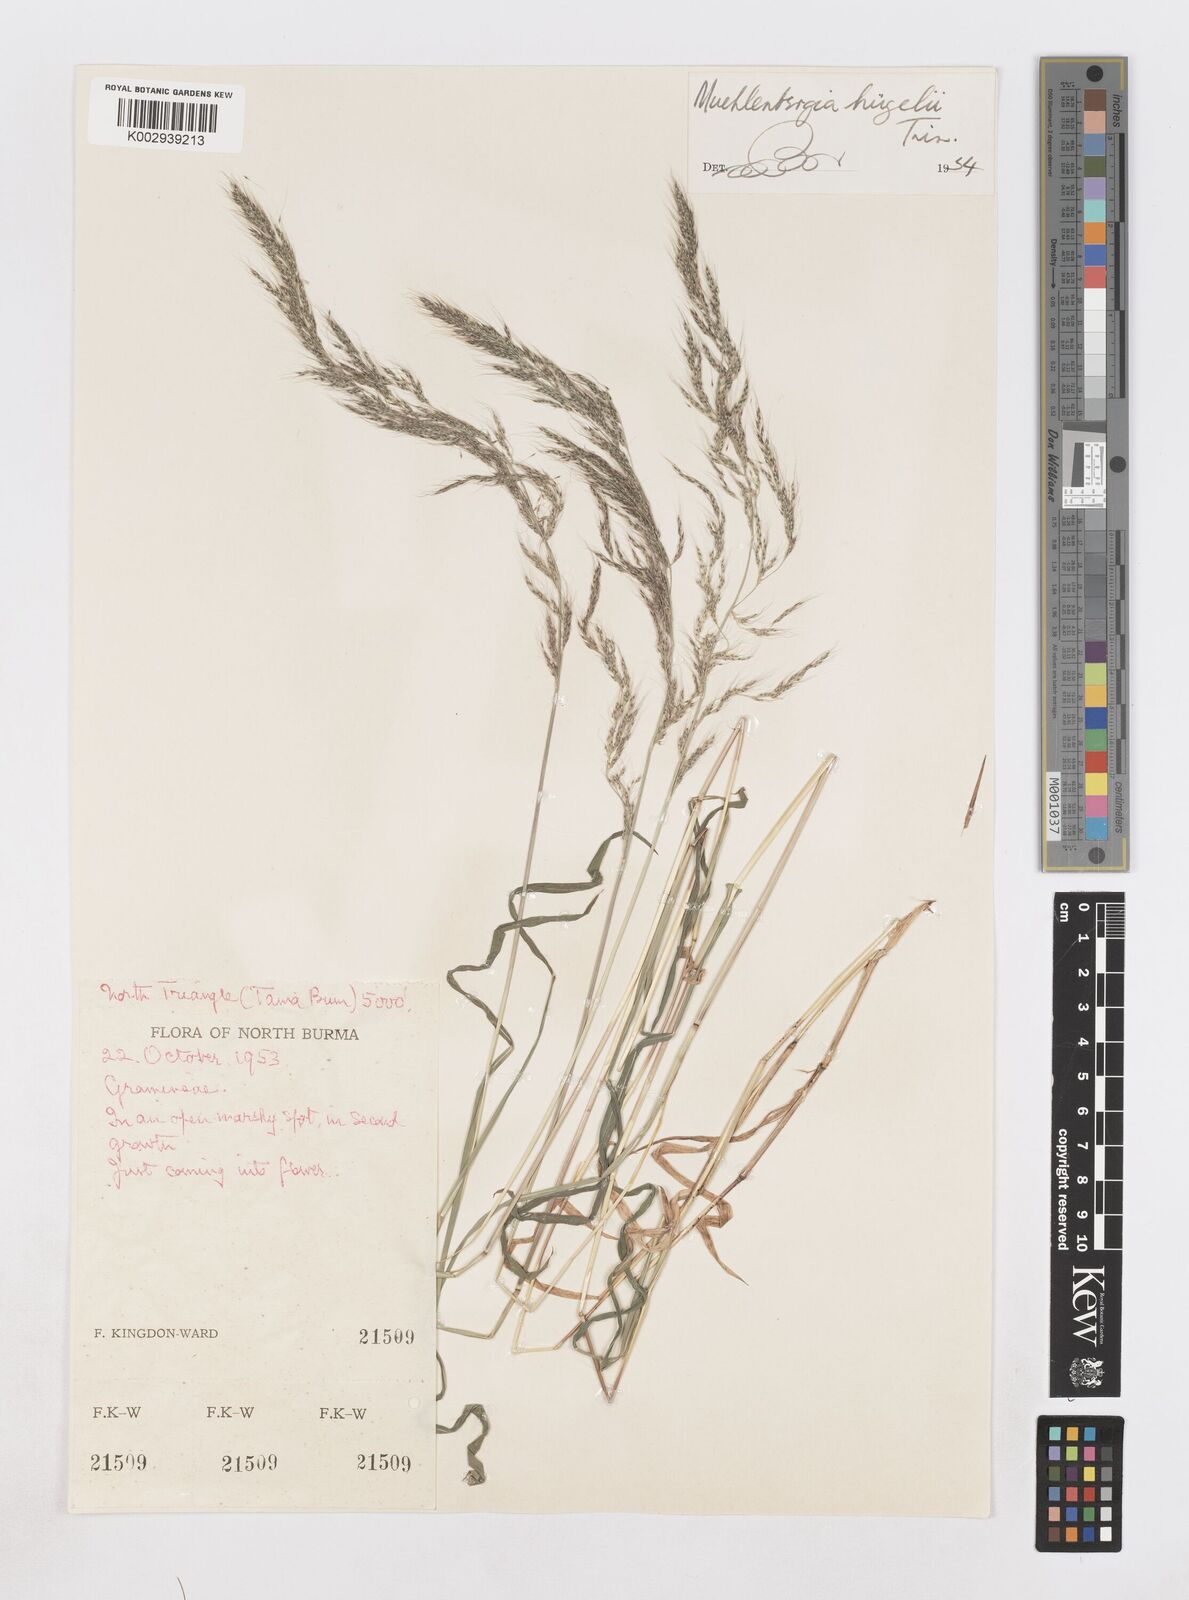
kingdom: Plantae
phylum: Tracheophyta
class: Liliopsida
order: Poales
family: Poaceae
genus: Muhlenbergia
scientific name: Muhlenbergia huegelii
